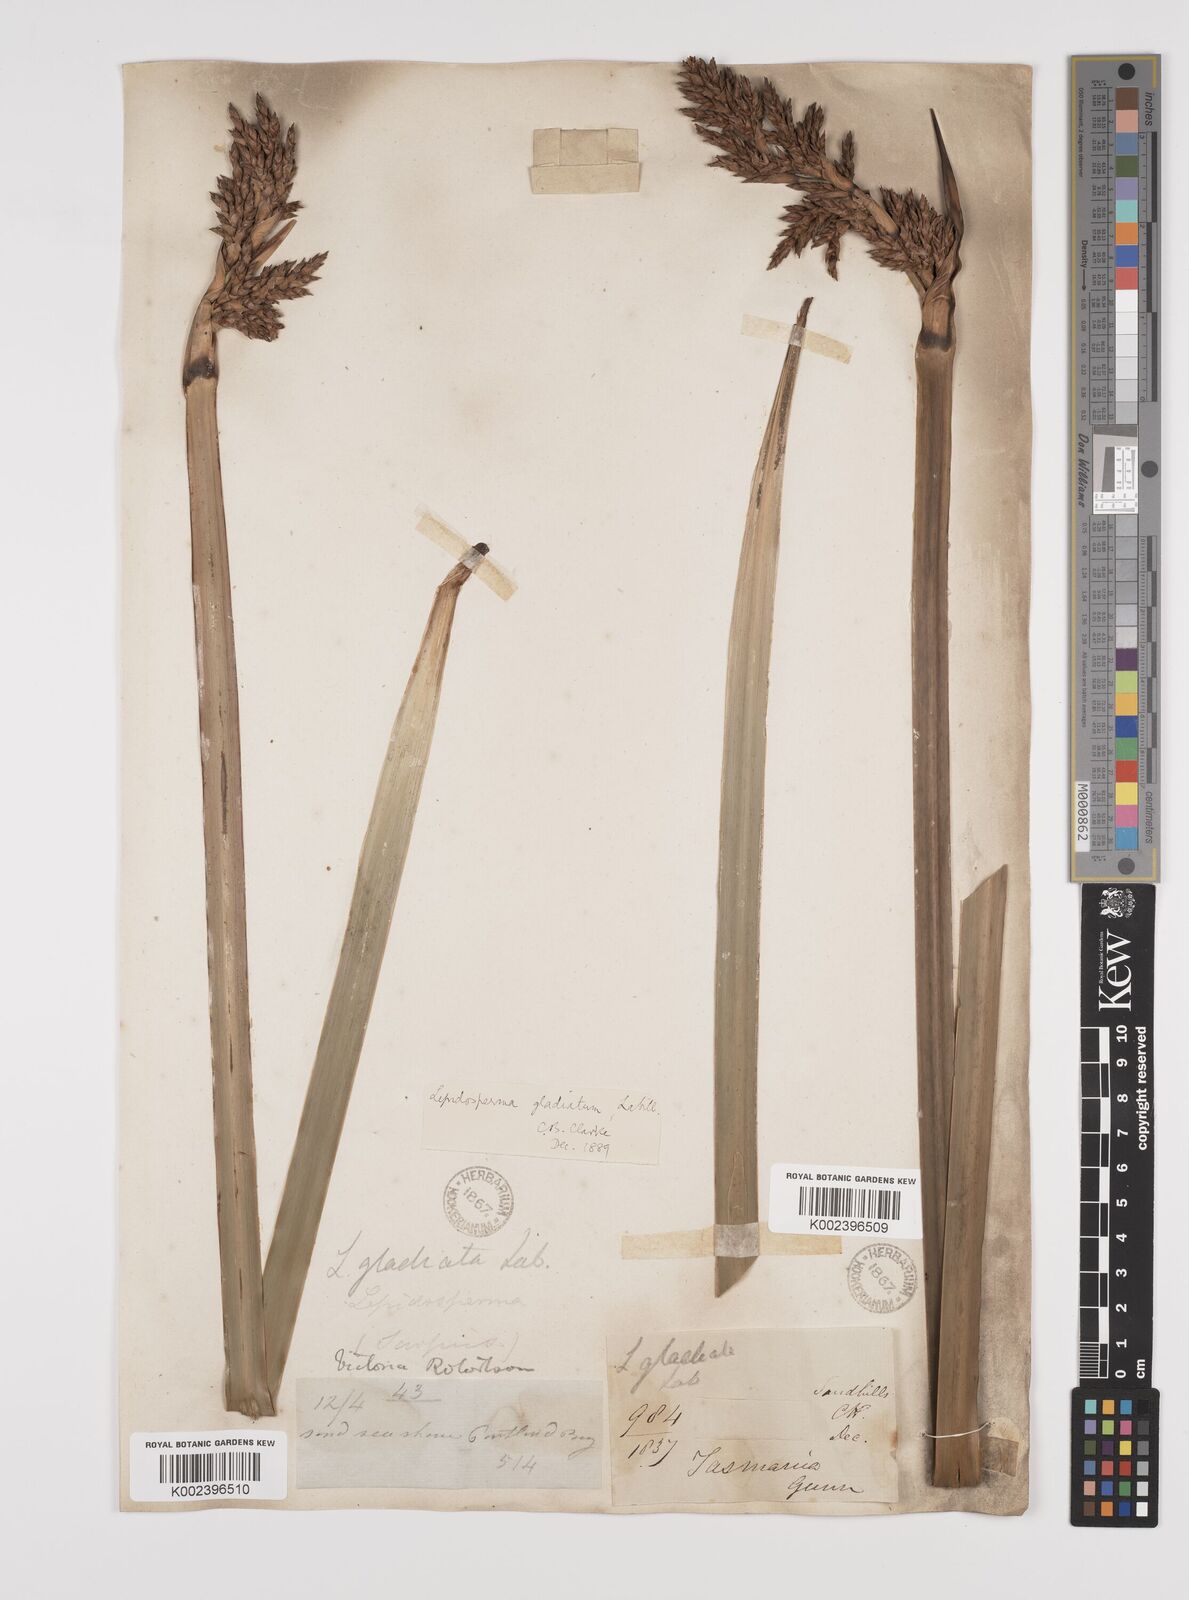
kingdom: Plantae
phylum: Tracheophyta
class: Liliopsida
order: Poales
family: Cyperaceae
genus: Lepidosperma
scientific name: Lepidosperma gladiatum
